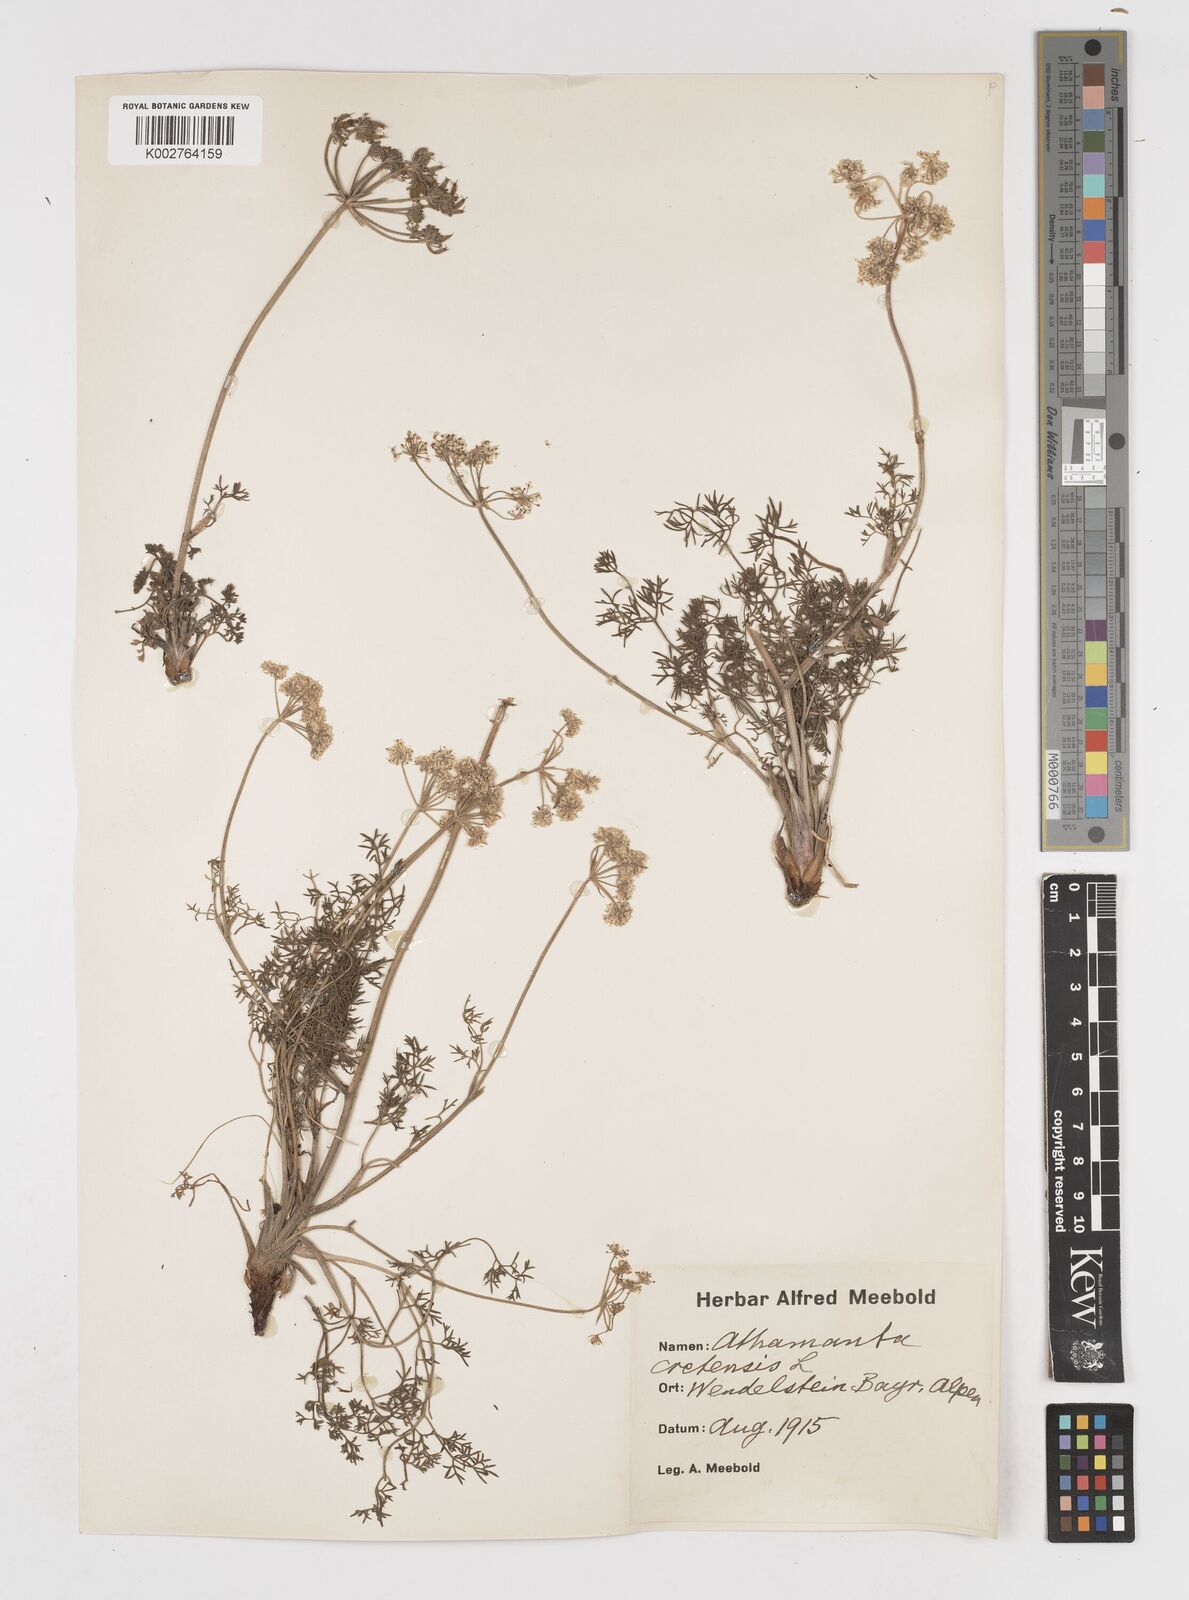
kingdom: Plantae
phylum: Tracheophyta
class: Magnoliopsida
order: Apiales
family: Apiaceae
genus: Athamanta
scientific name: Athamanta cretensis
